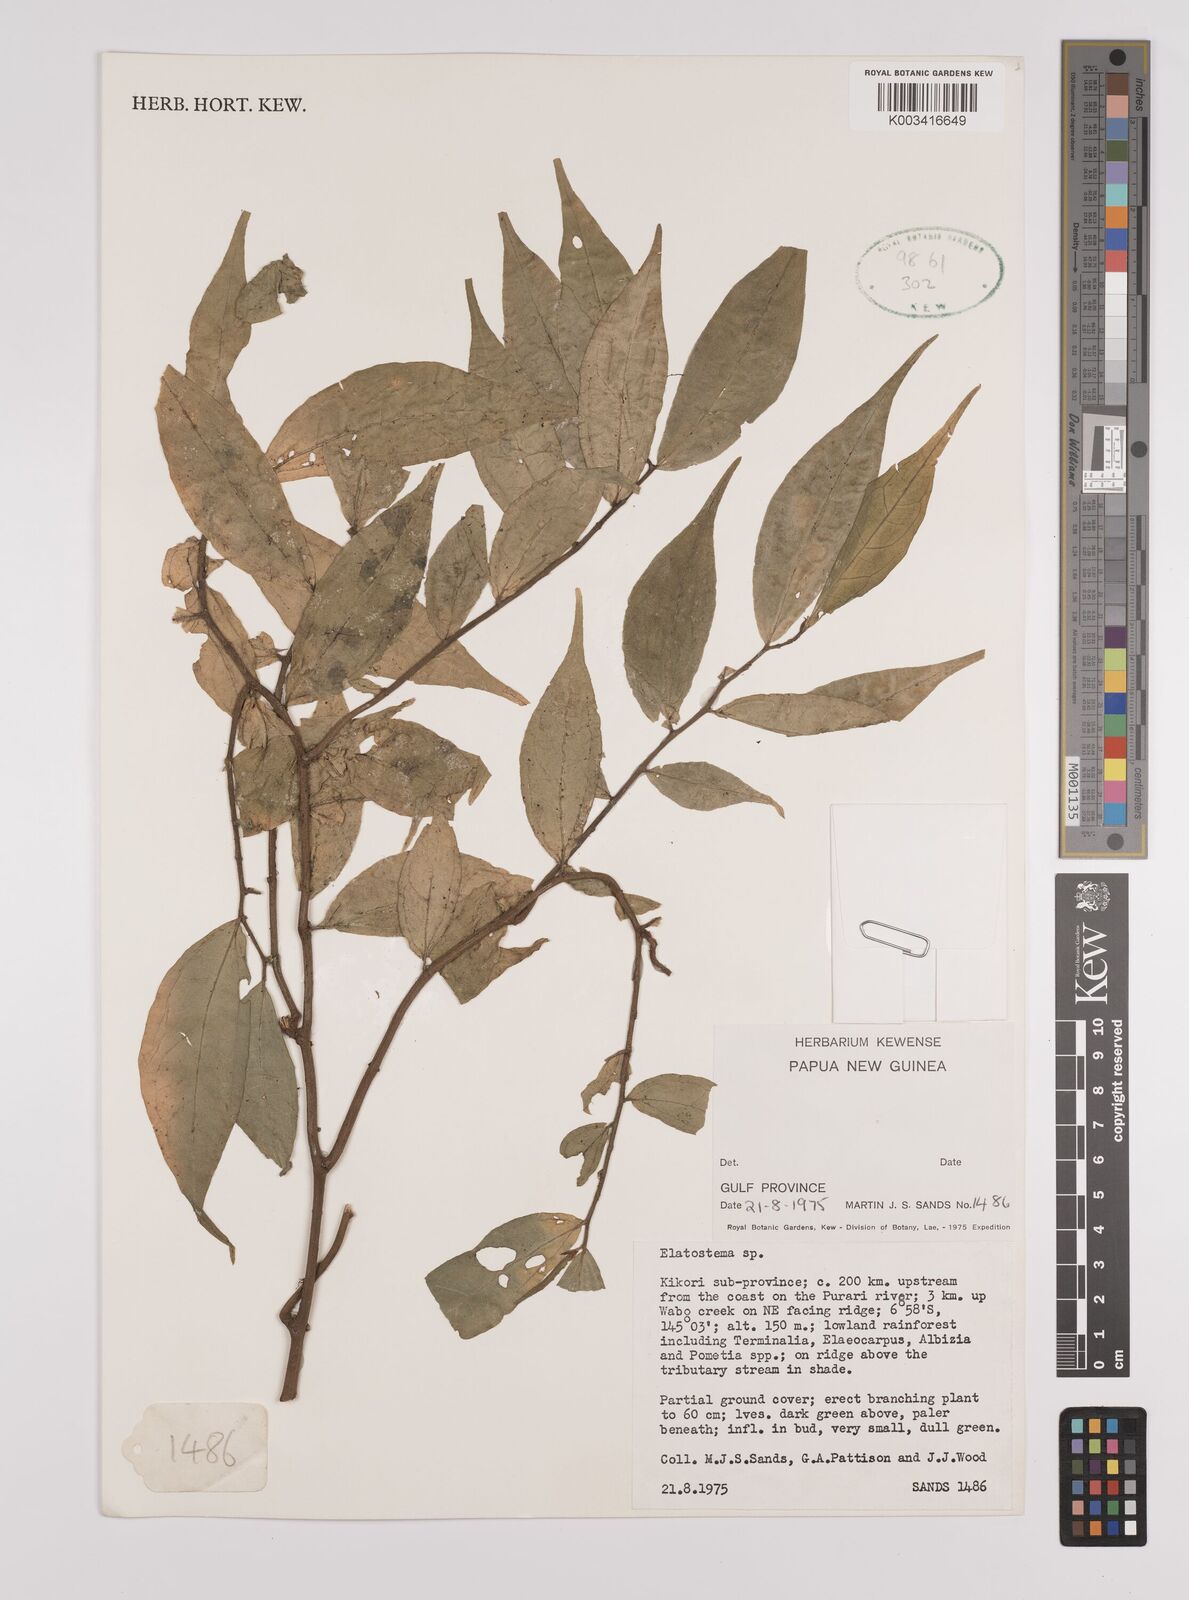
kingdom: Plantae
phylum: Tracheophyta
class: Magnoliopsida
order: Rosales
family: Urticaceae
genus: Elatostema
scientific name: Elatostema
